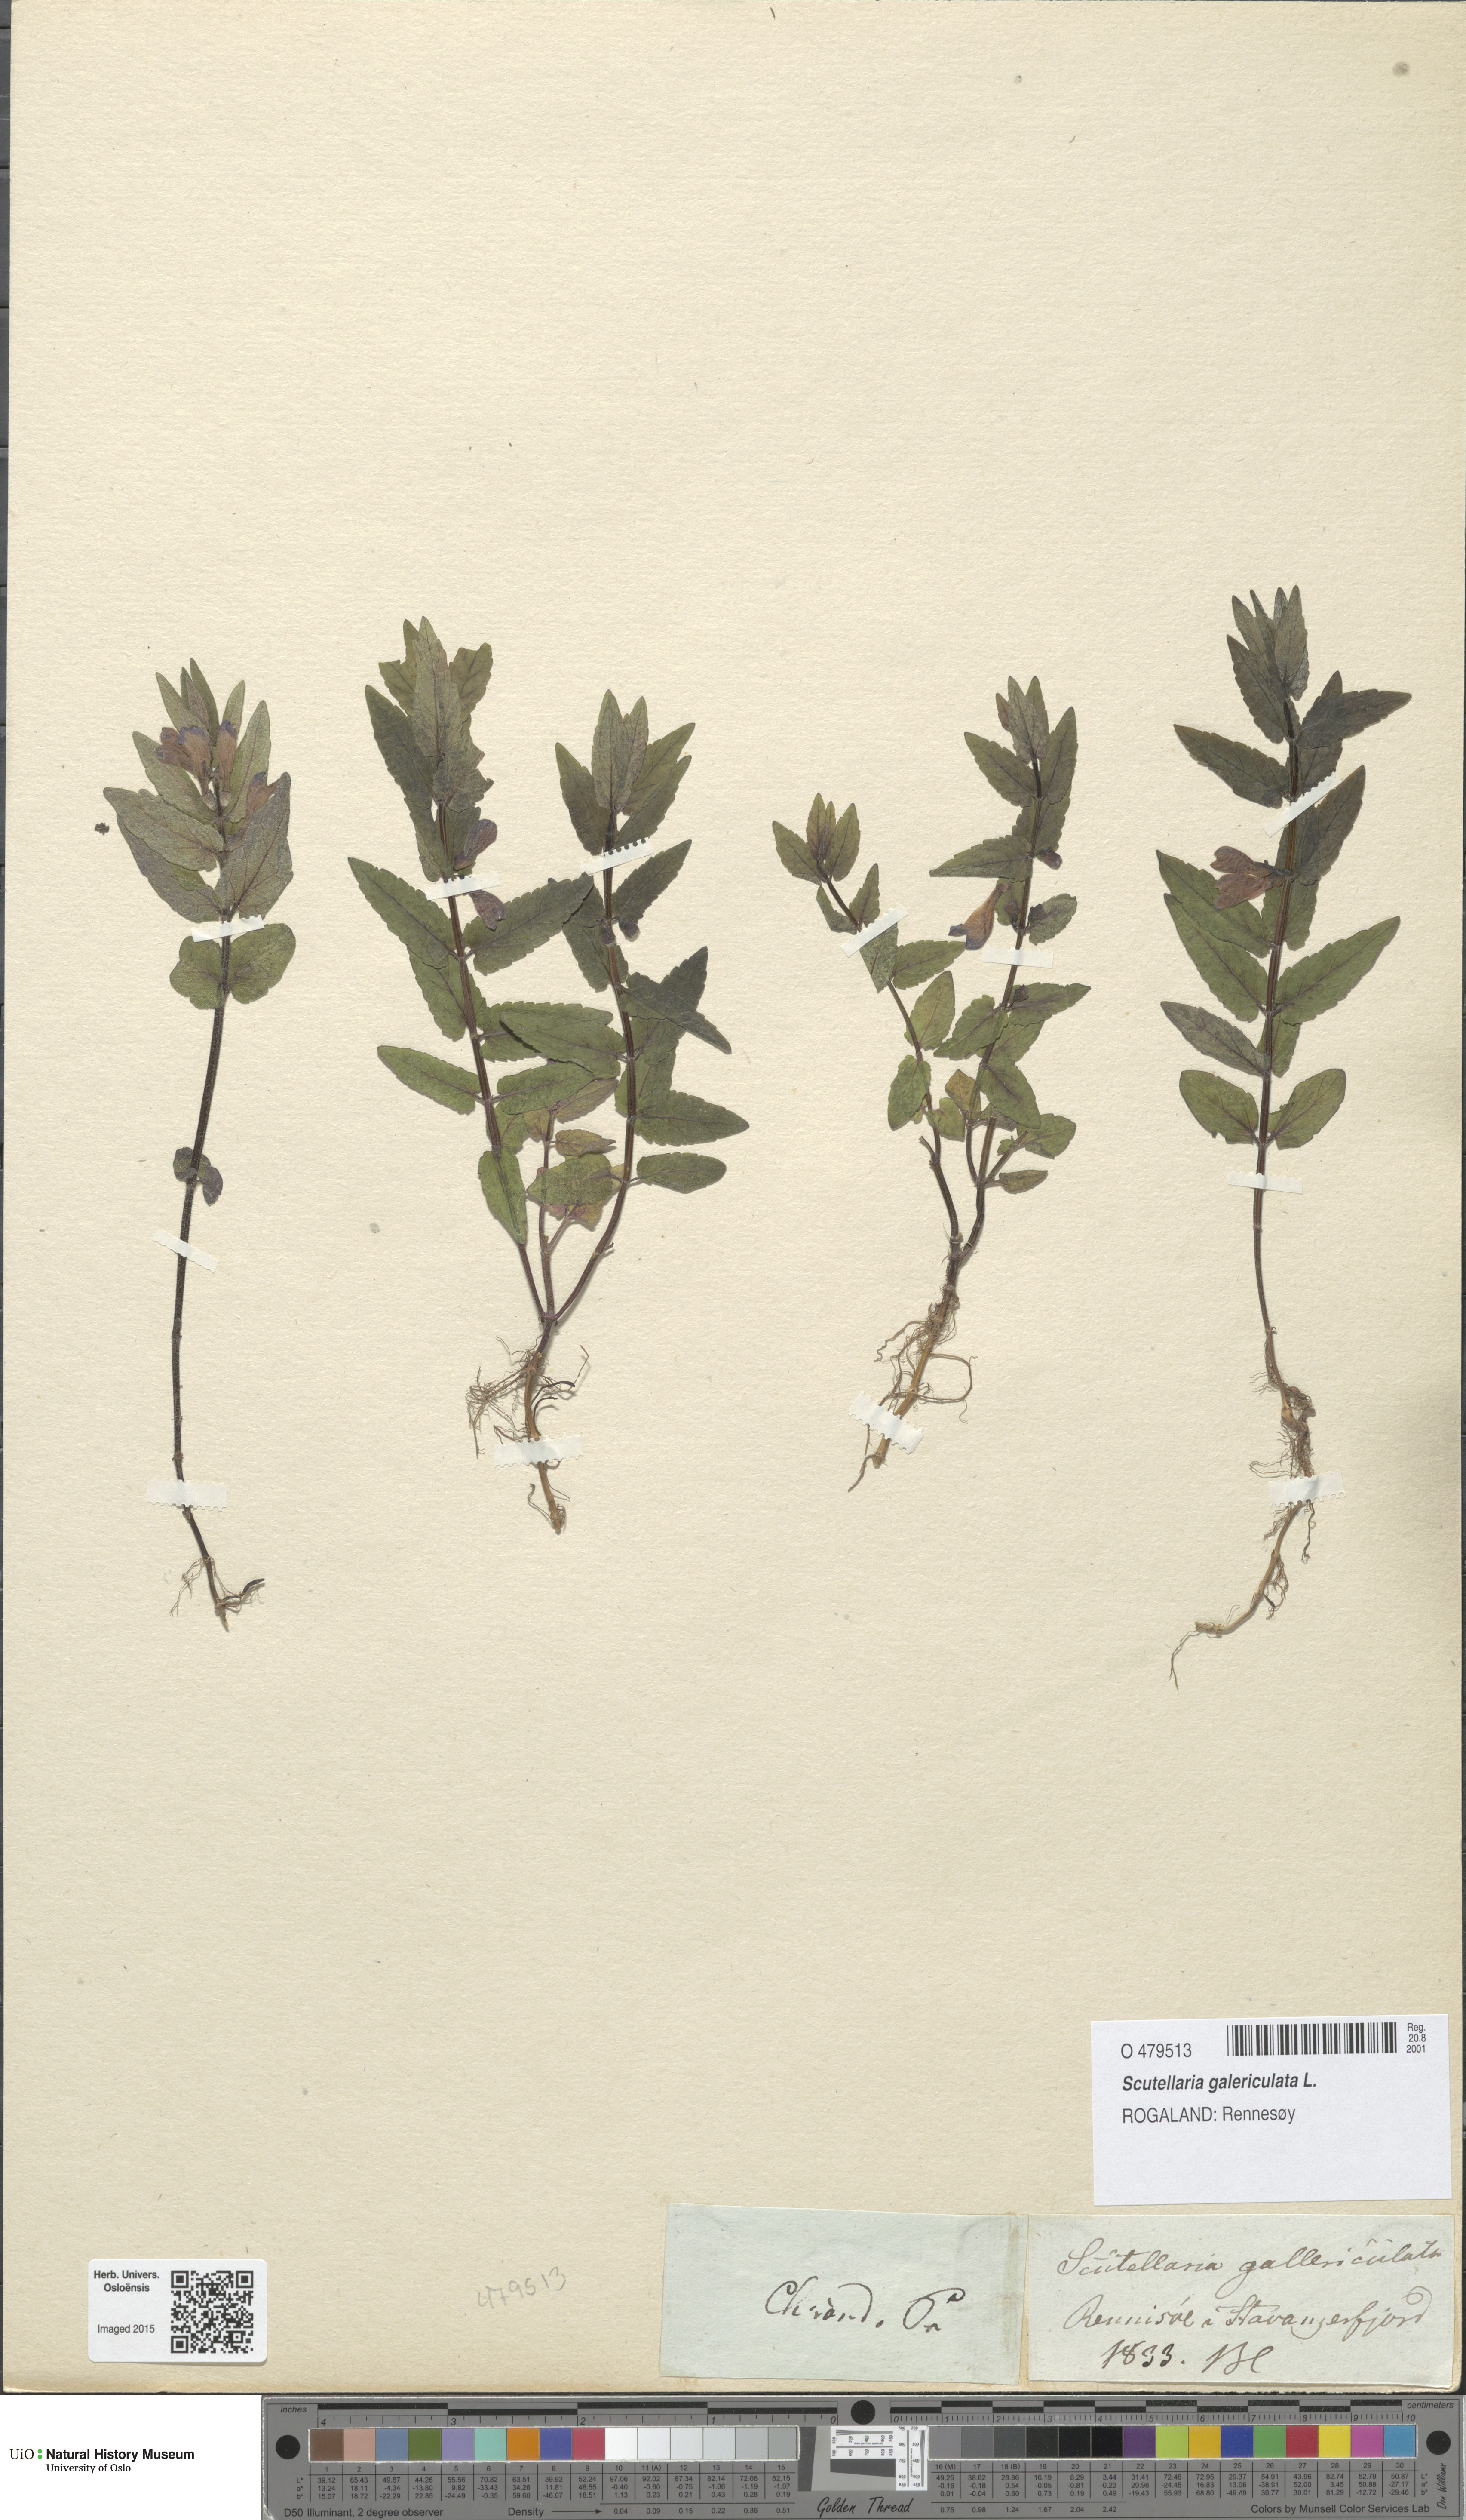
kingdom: Plantae
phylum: Tracheophyta
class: Magnoliopsida
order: Lamiales
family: Lamiaceae
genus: Scutellaria
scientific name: Scutellaria galericulata
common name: Skullcap
